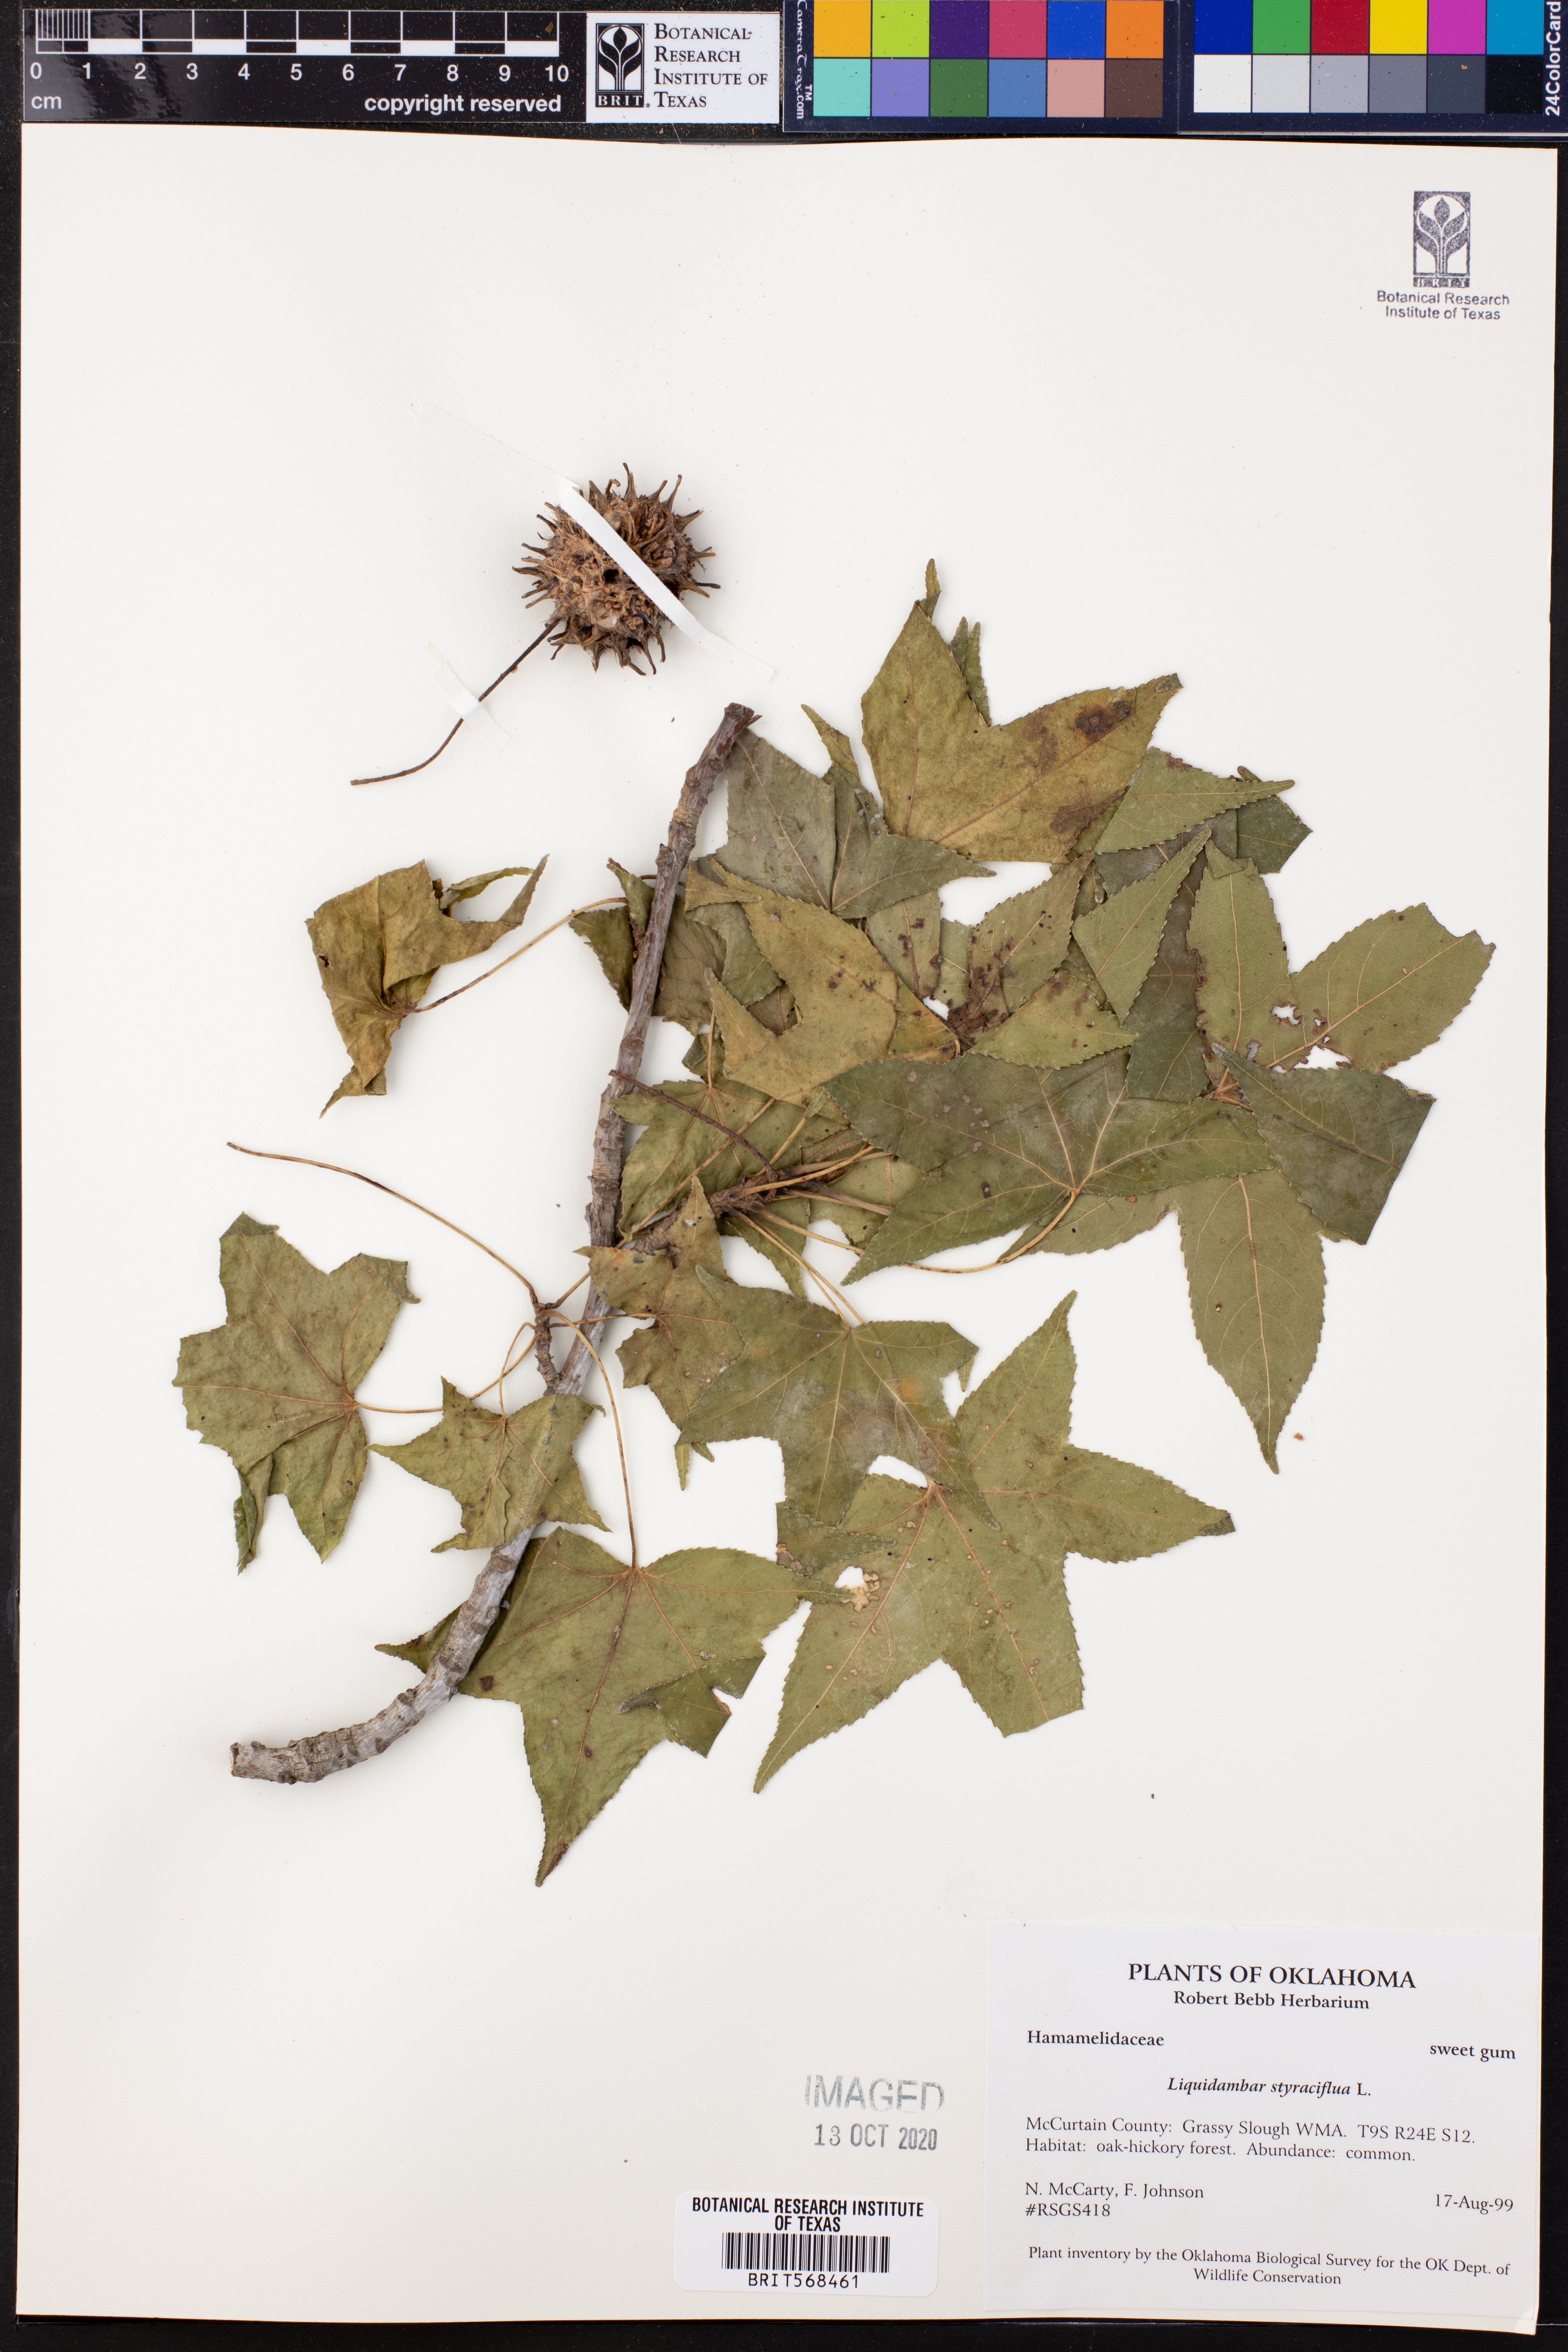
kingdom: Plantae
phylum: Tracheophyta
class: Magnoliopsida
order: Saxifragales
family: Altingiaceae
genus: Liquidambar
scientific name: Liquidambar styraciflua
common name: Sweet gum
